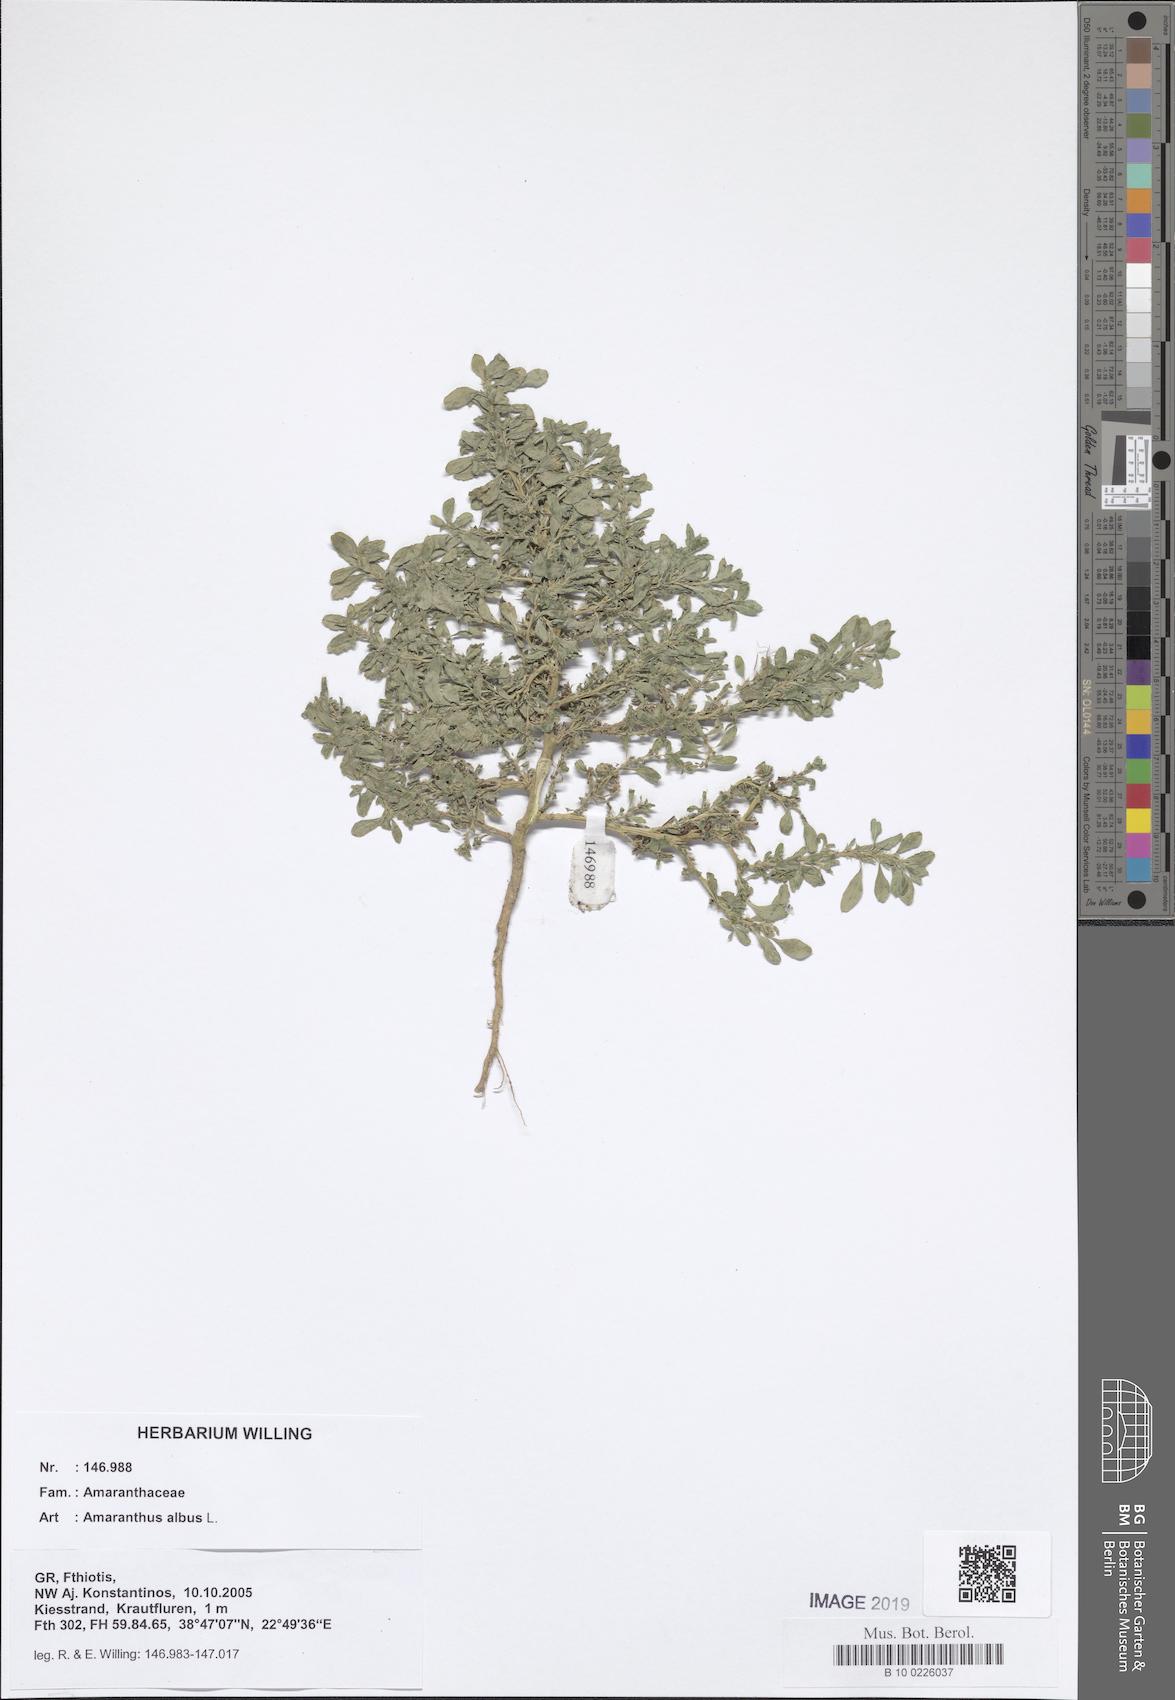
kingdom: Plantae
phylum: Tracheophyta
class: Magnoliopsida
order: Caryophyllales
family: Amaranthaceae
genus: Amaranthus
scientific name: Amaranthus albus
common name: White pigweed
